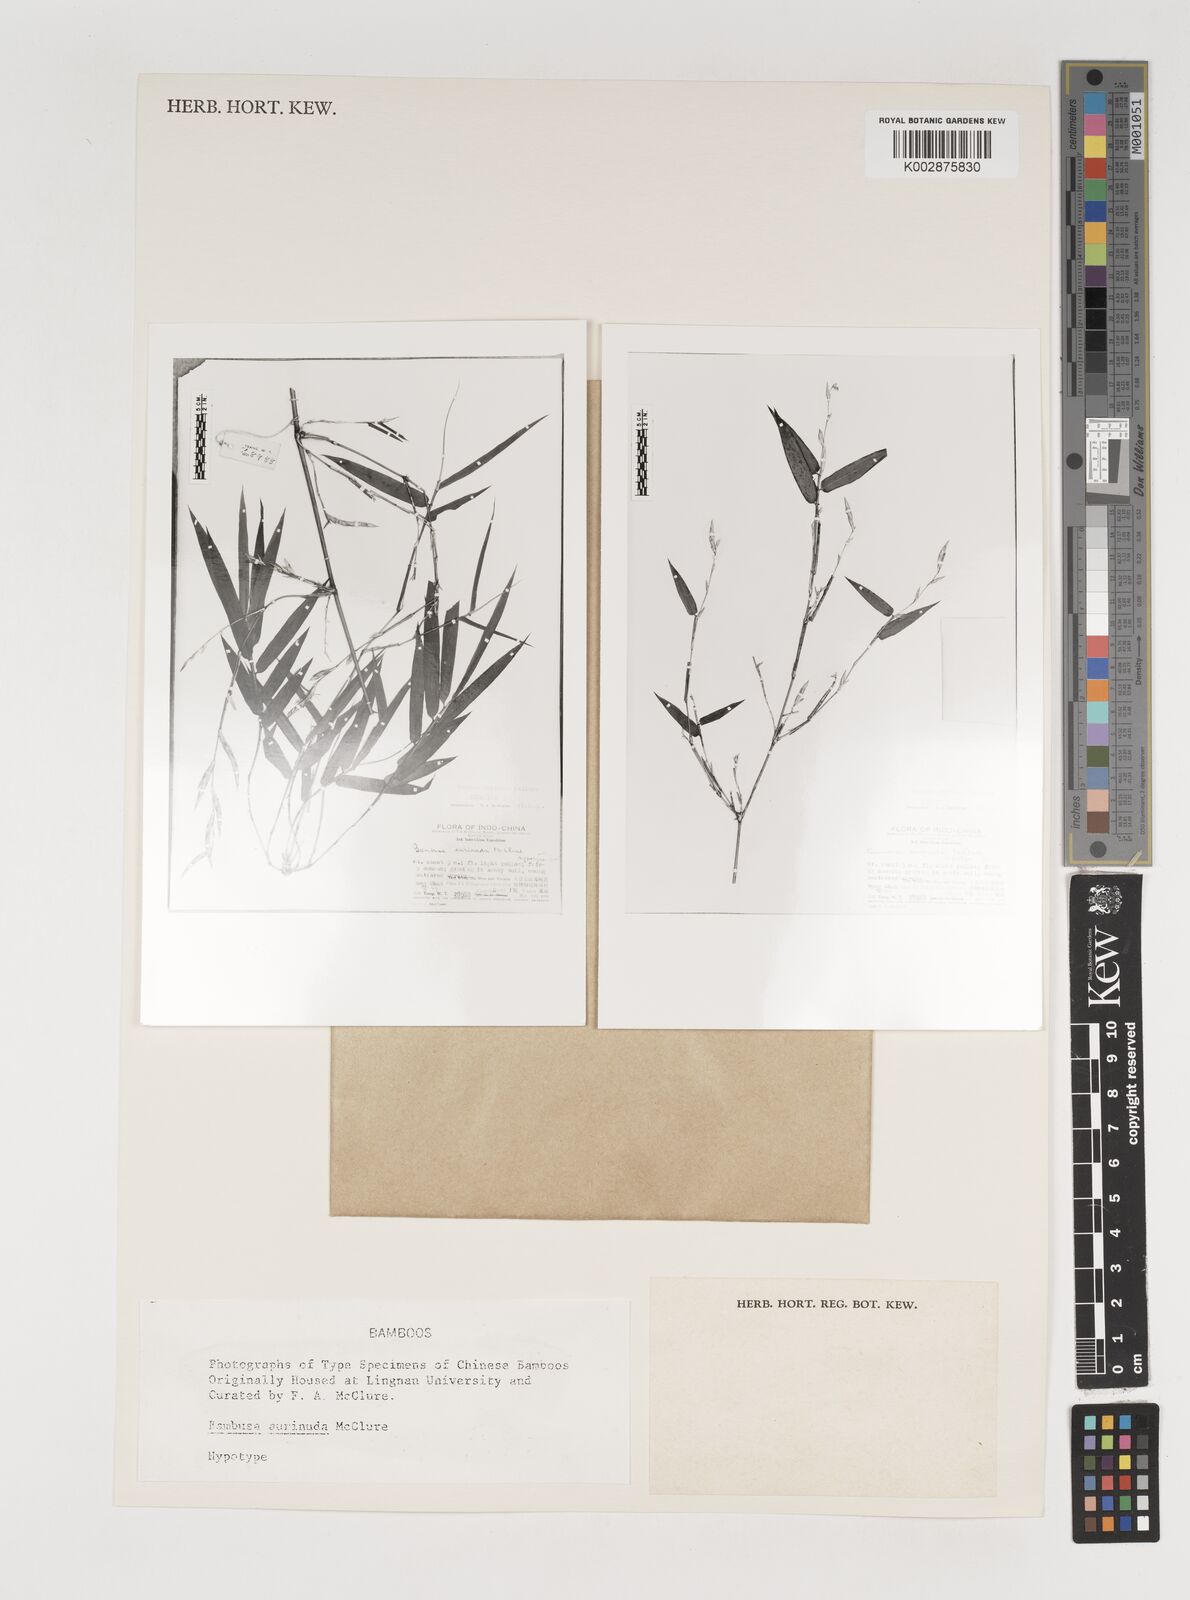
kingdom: Plantae
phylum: Tracheophyta
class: Liliopsida
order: Poales
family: Poaceae
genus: Bambusa
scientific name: Bambusa aurinuda
